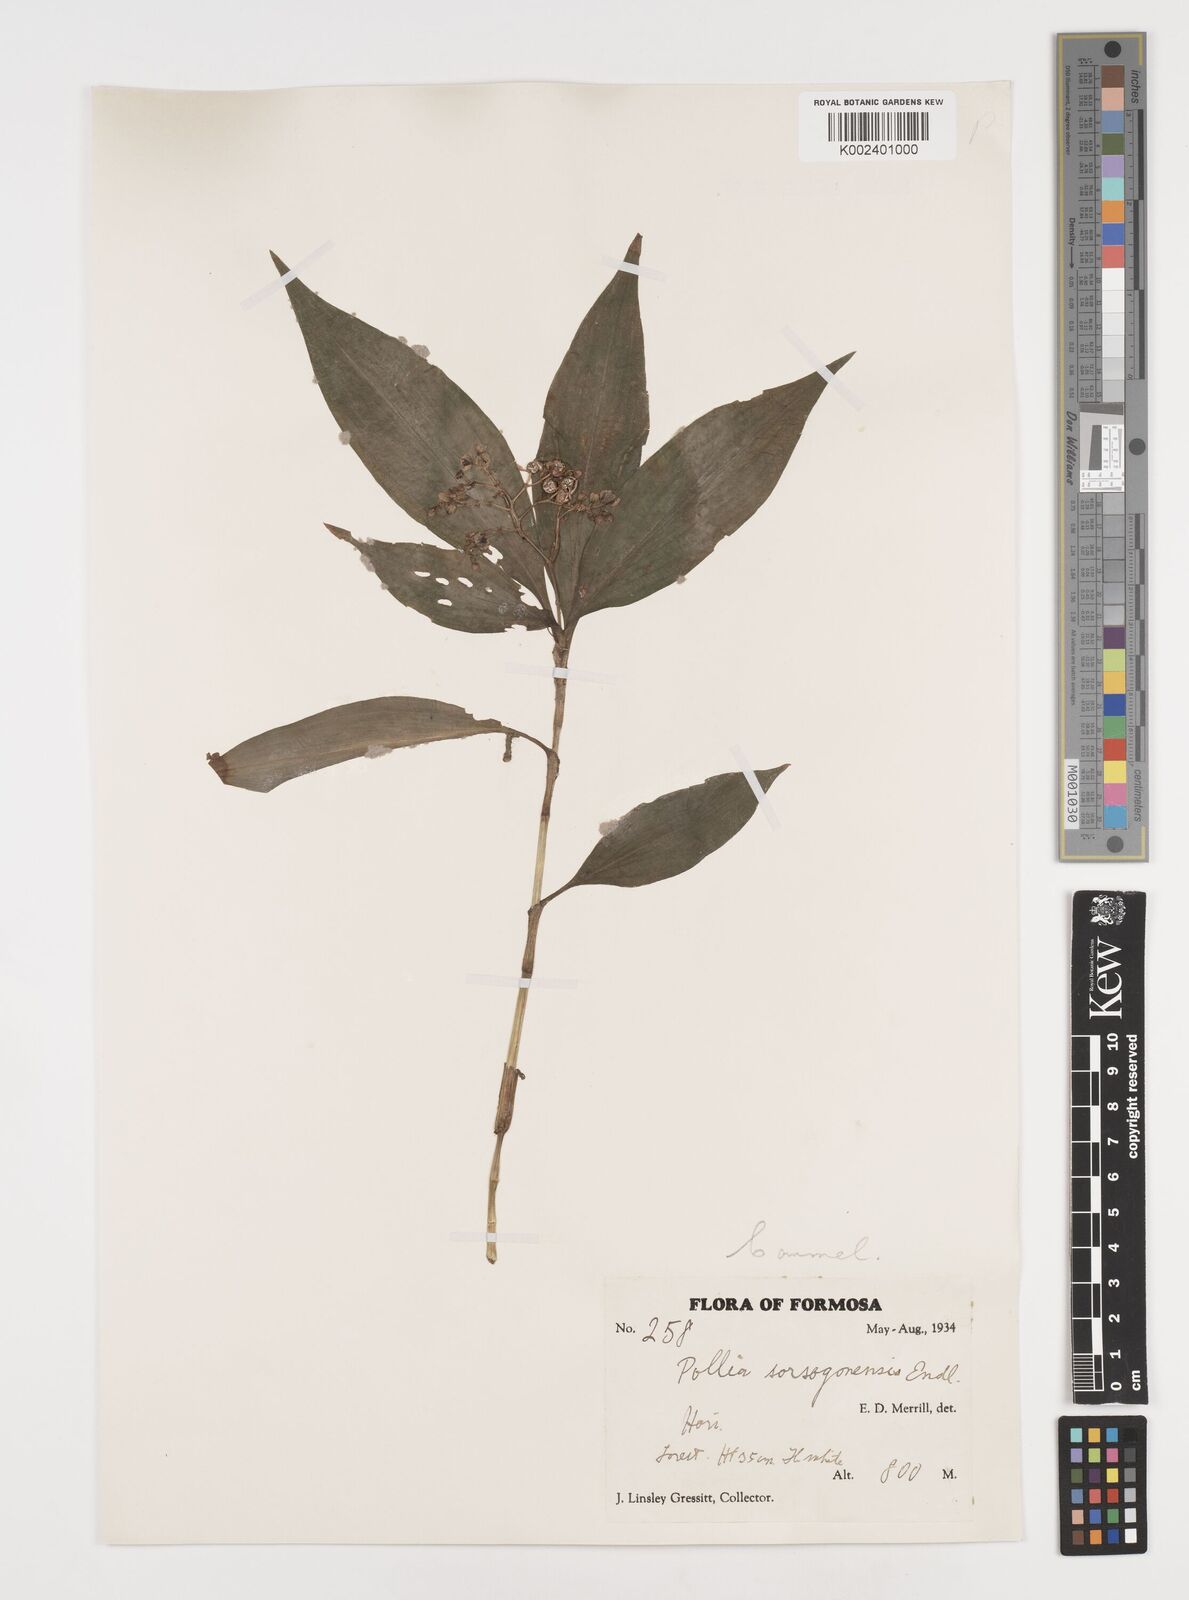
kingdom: Plantae
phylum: Tracheophyta
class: Liliopsida
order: Commelinales
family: Commelinaceae
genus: Pollia
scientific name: Pollia secundiflora
